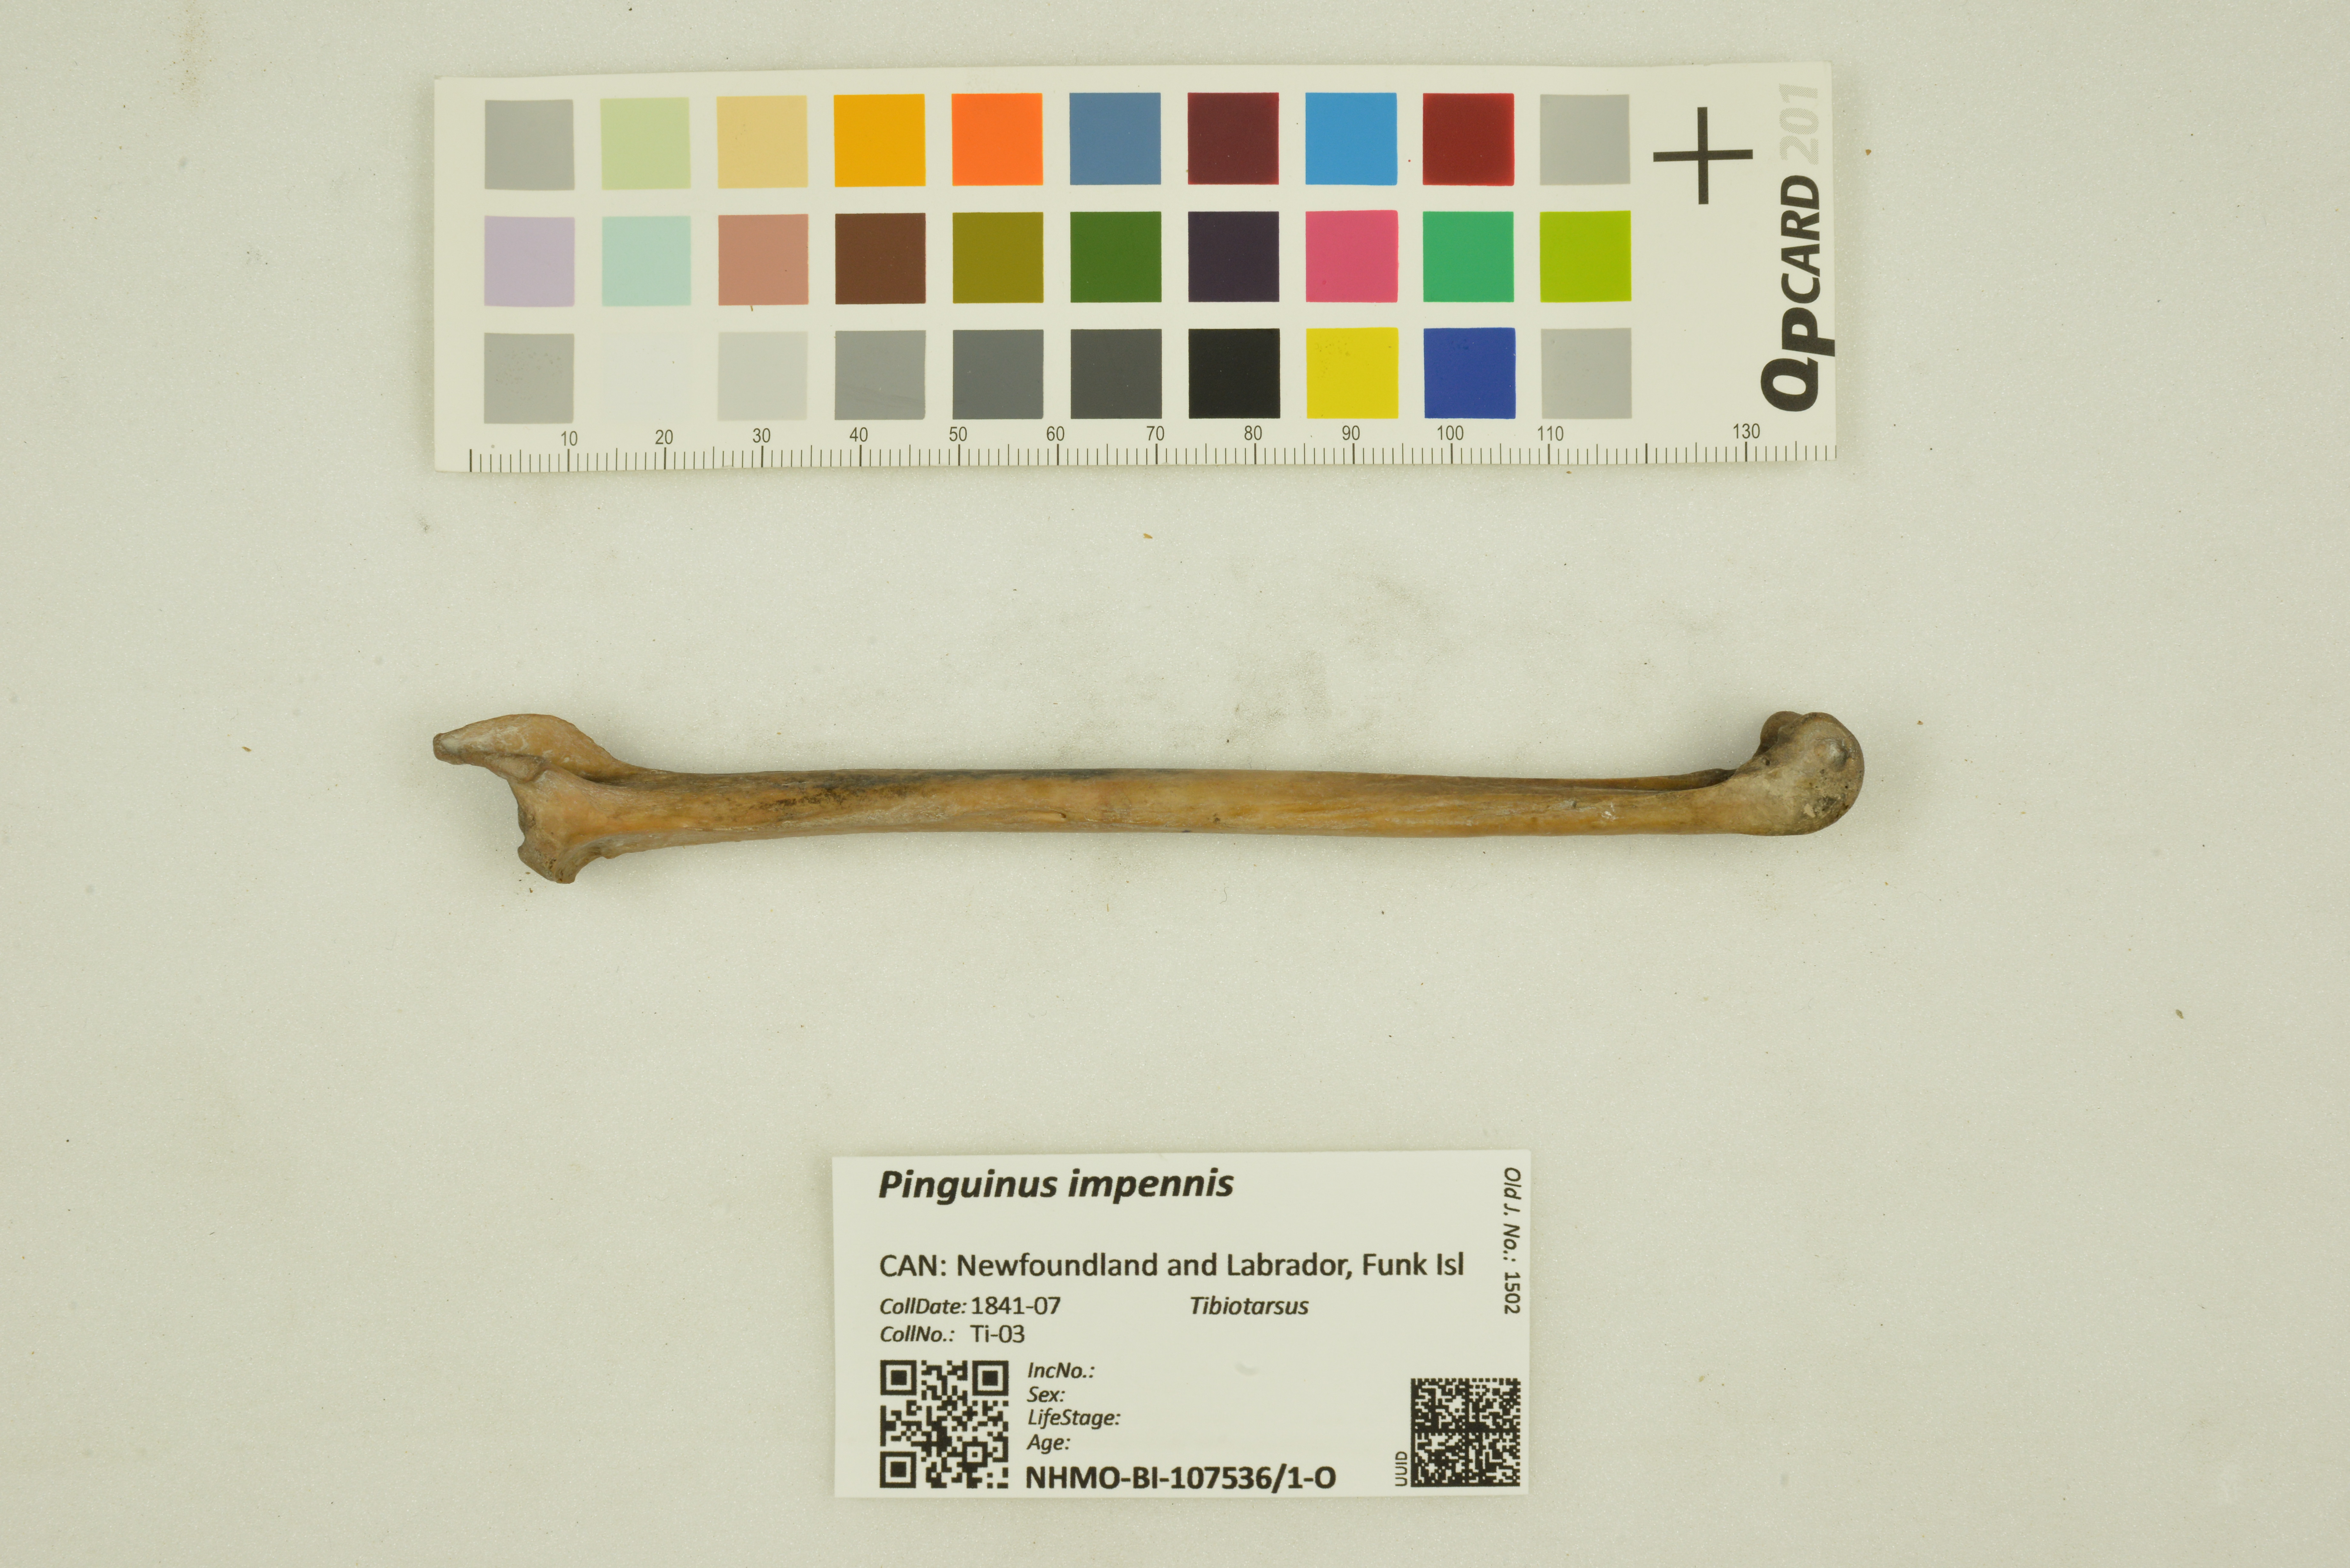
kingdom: Animalia
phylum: Chordata
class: Aves
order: Charadriiformes
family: Alcidae
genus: Pinguinus
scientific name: Pinguinus impennis
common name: Great auk
